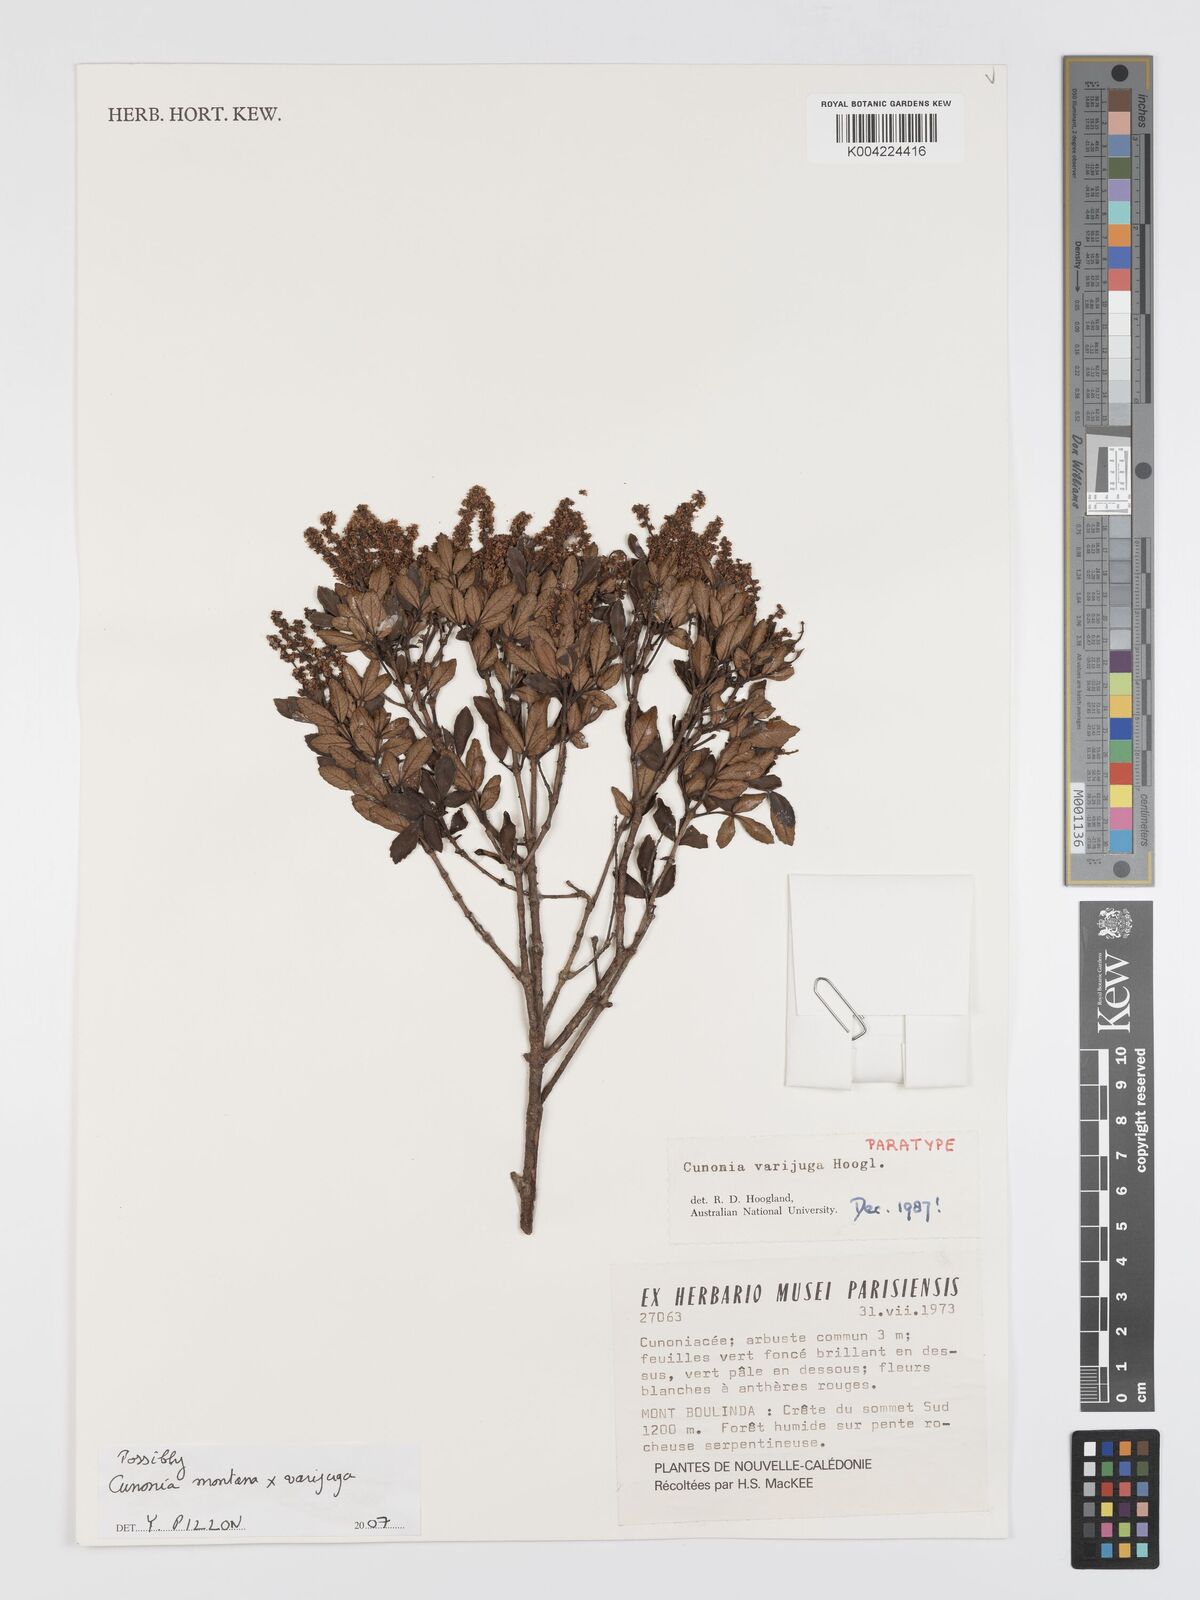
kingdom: Plantae
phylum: Tracheophyta
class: Magnoliopsida
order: Oxalidales
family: Cunoniaceae
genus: Cunonia
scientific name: Cunonia
